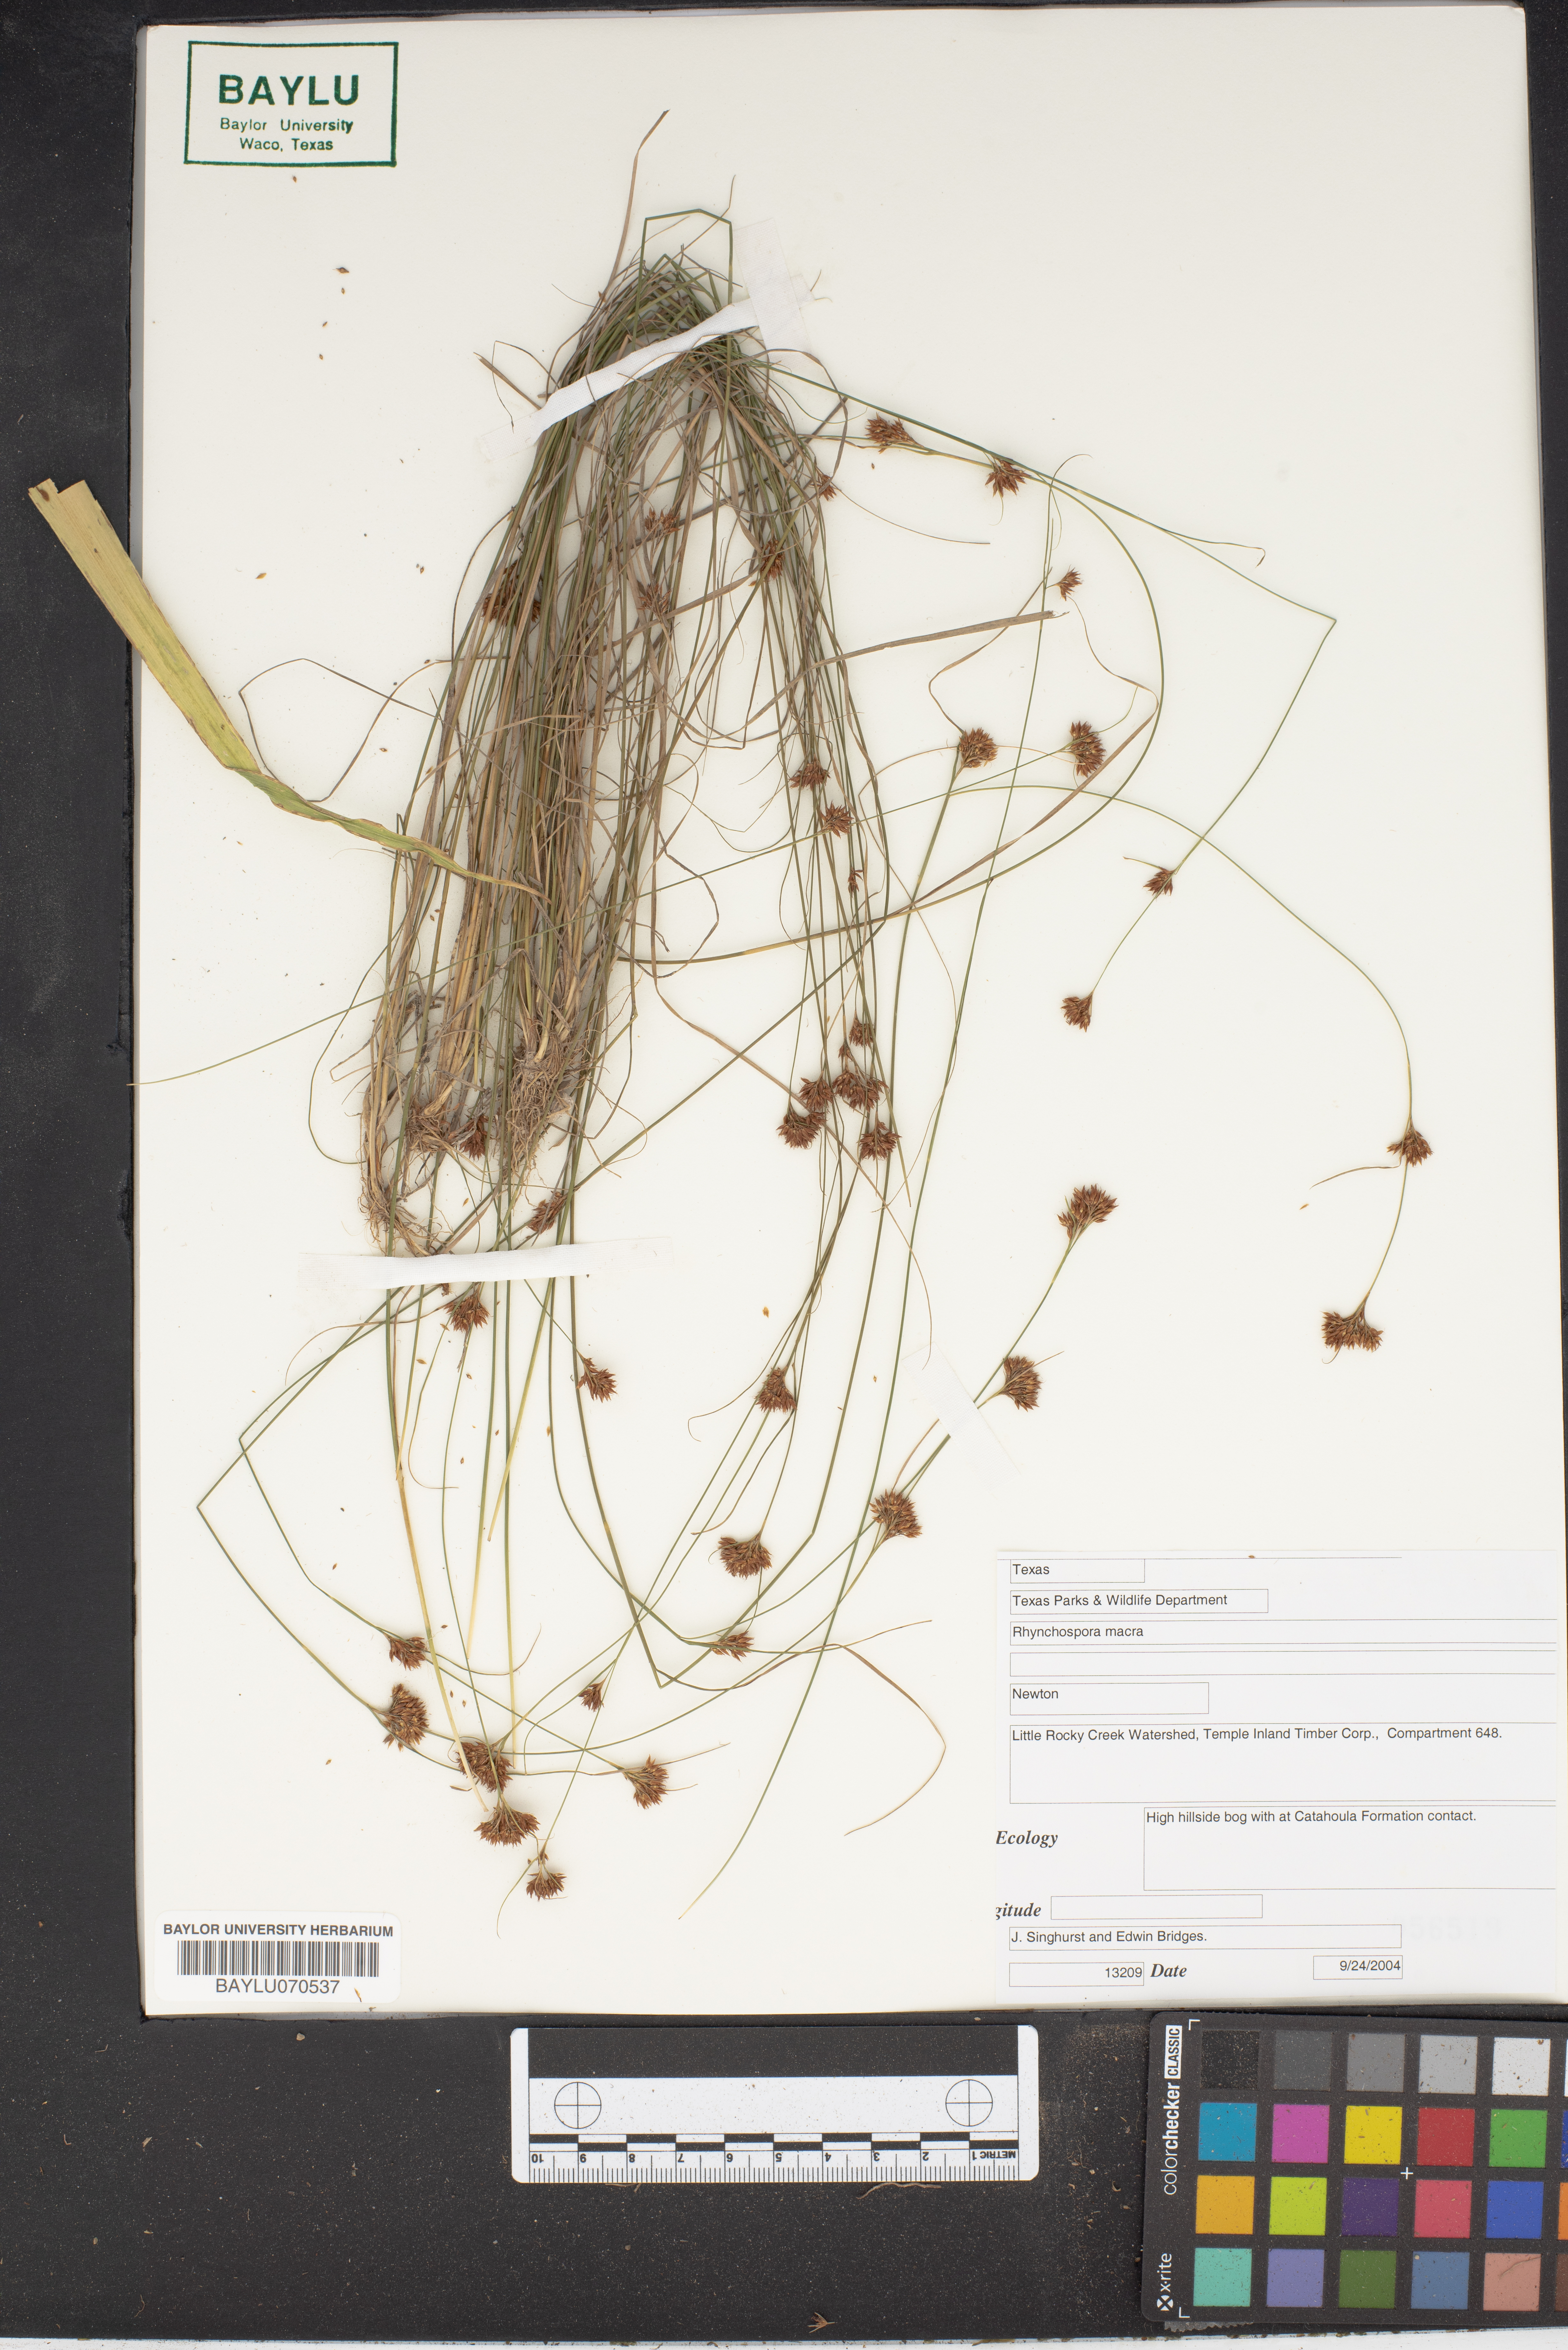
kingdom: Plantae
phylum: Tracheophyta
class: Liliopsida
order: Poales
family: Cyperaceae
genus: Rhynchospora
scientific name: Rhynchospora macra
